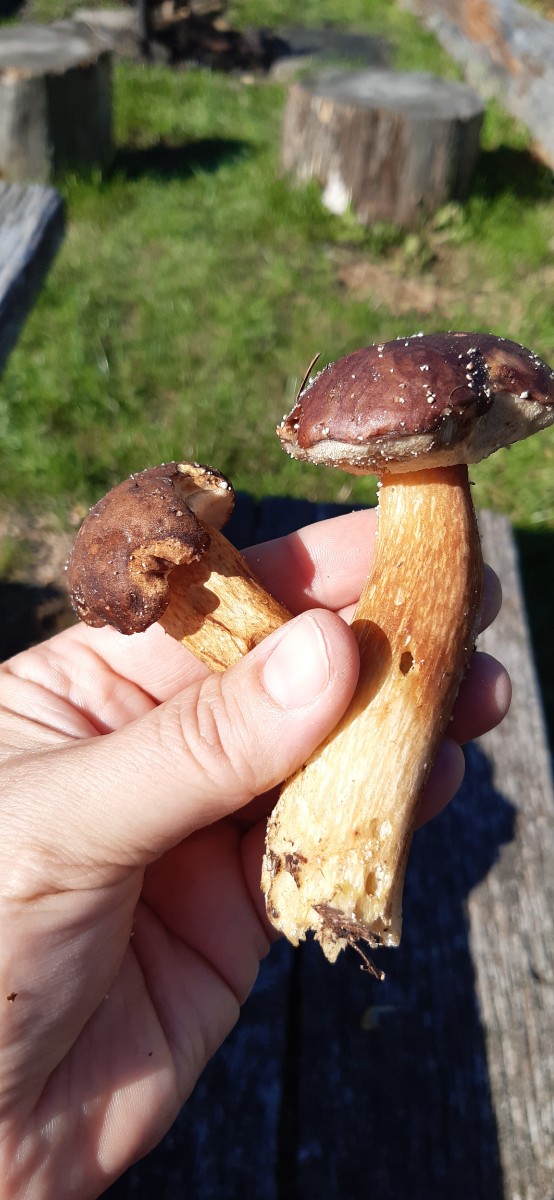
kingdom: Fungi
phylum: Basidiomycota
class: Agaricomycetes
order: Boletales
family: Boletaceae
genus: Imleria
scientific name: Imleria badia
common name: brunstokket rørhat
